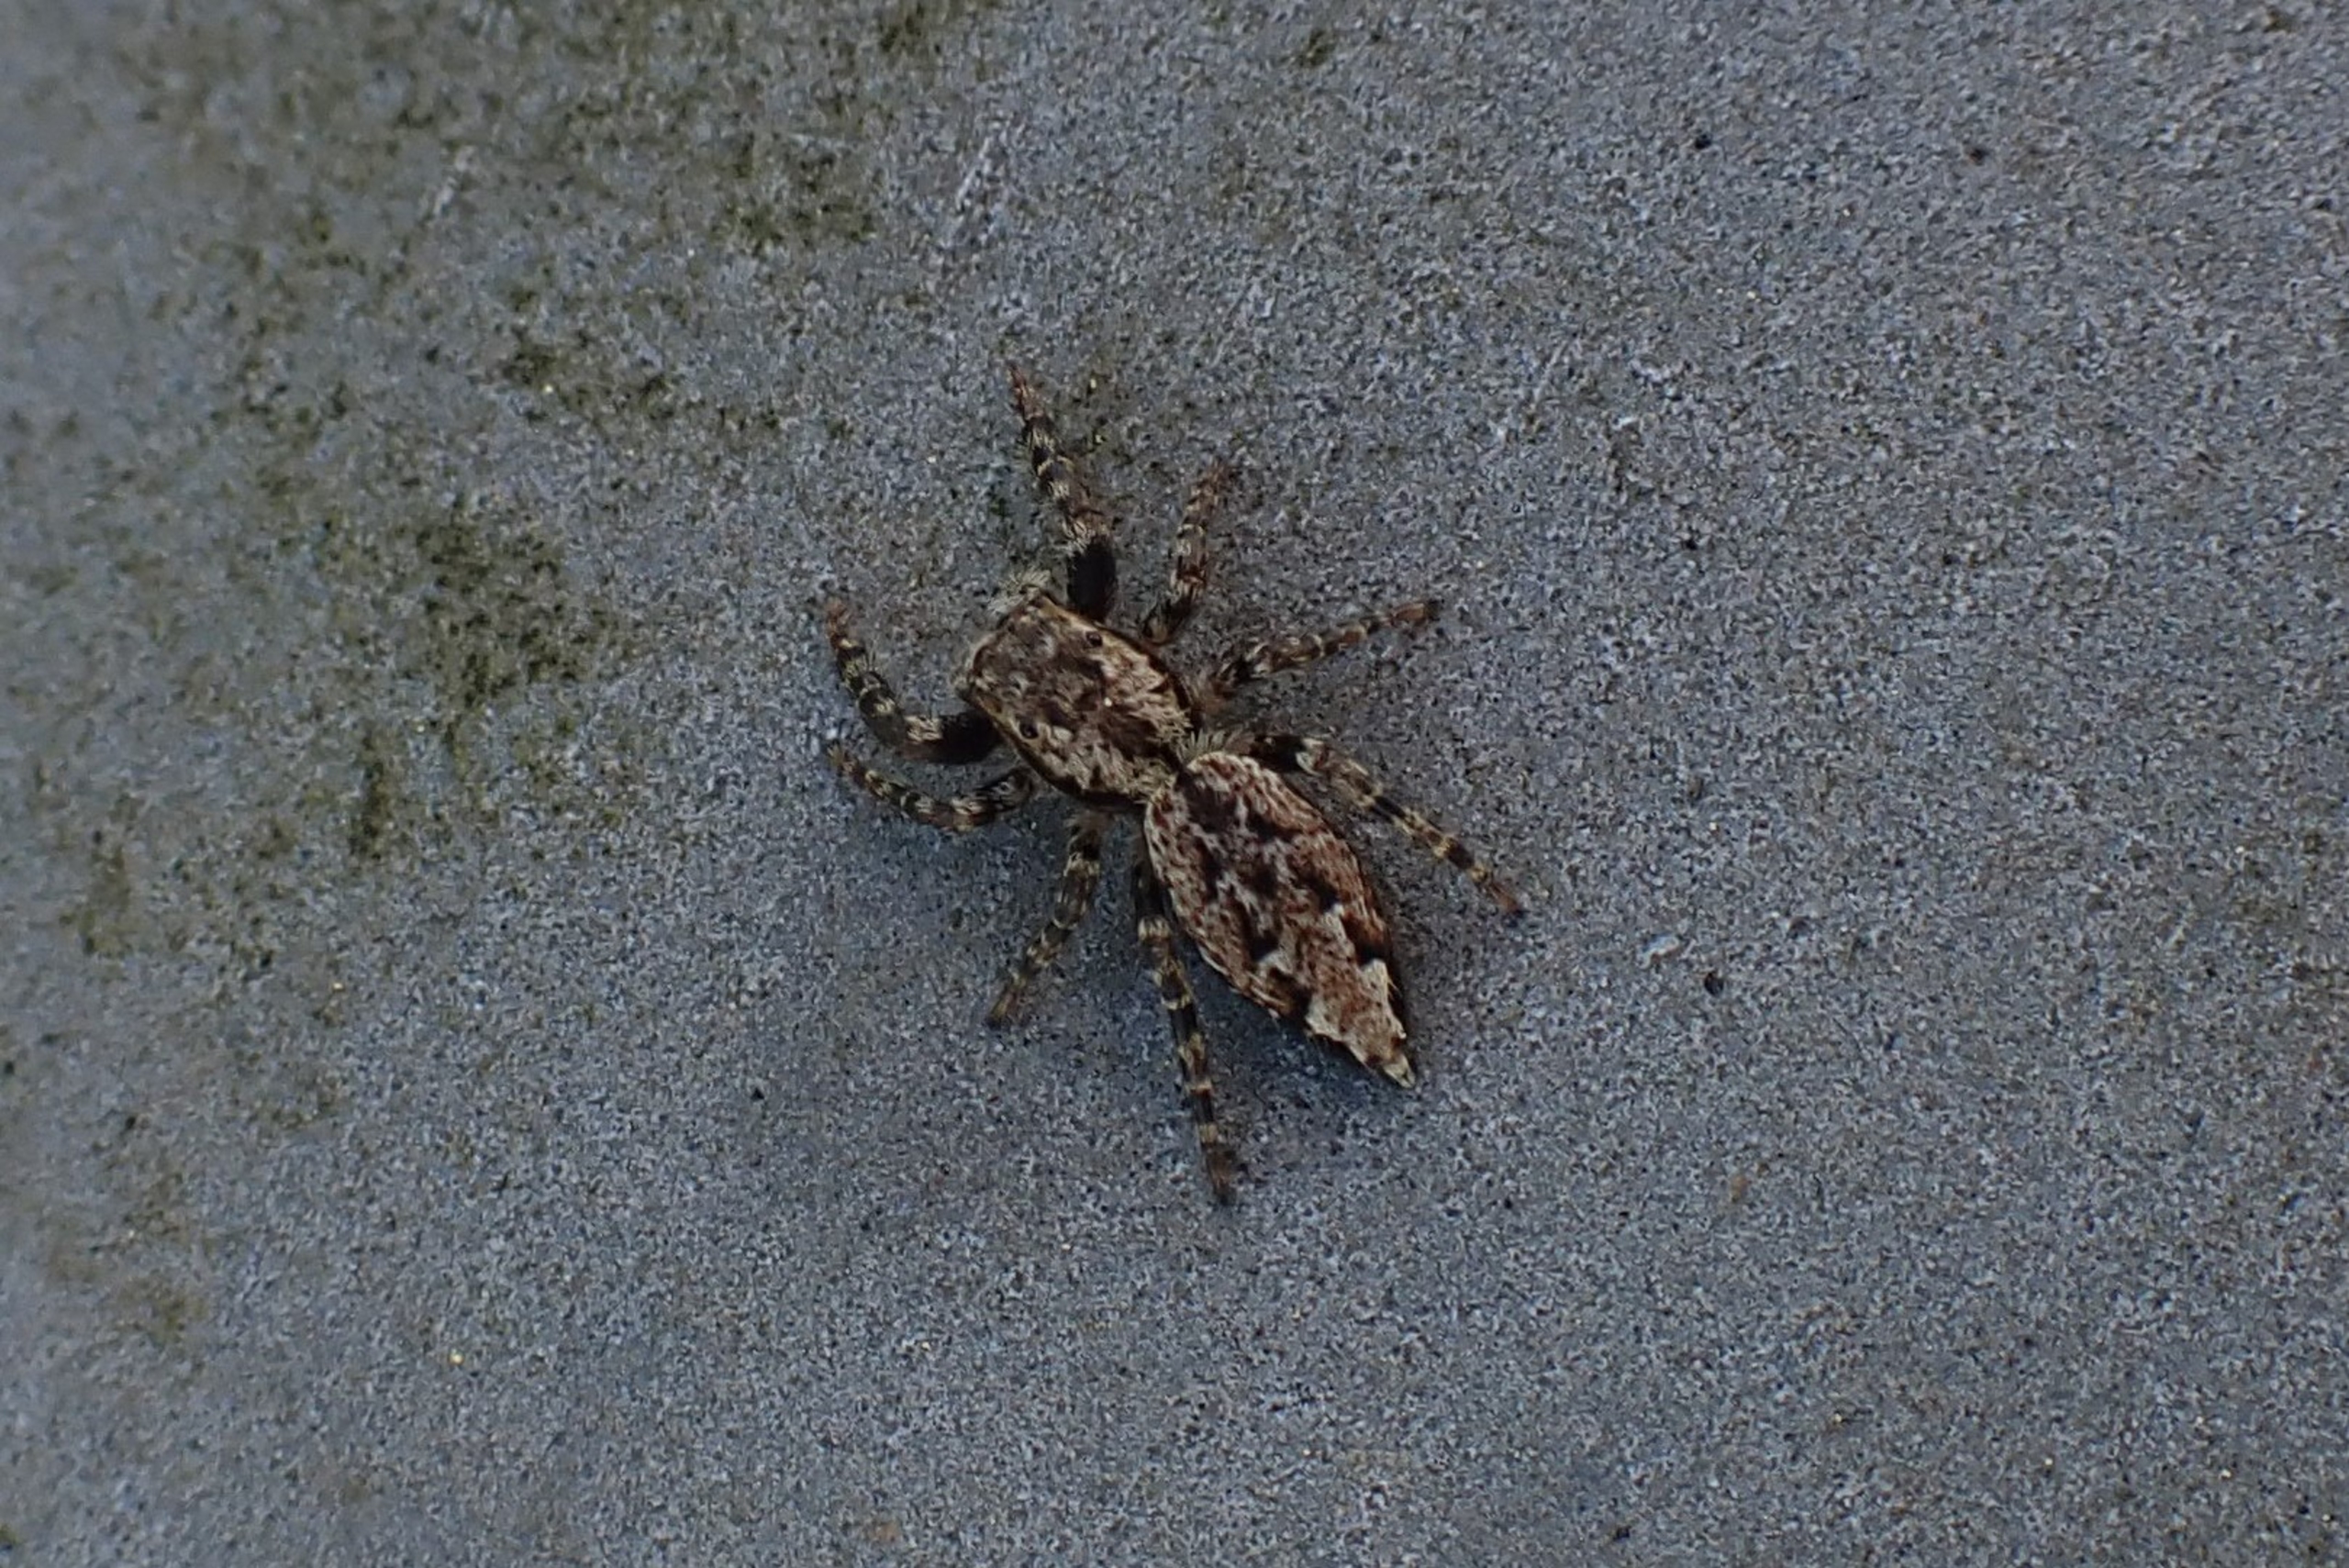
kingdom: Animalia
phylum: Arthropoda
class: Arachnida
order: Araneae
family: Salticidae
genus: Marpissa
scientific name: Marpissa muscosa
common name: Stor springedderkop
